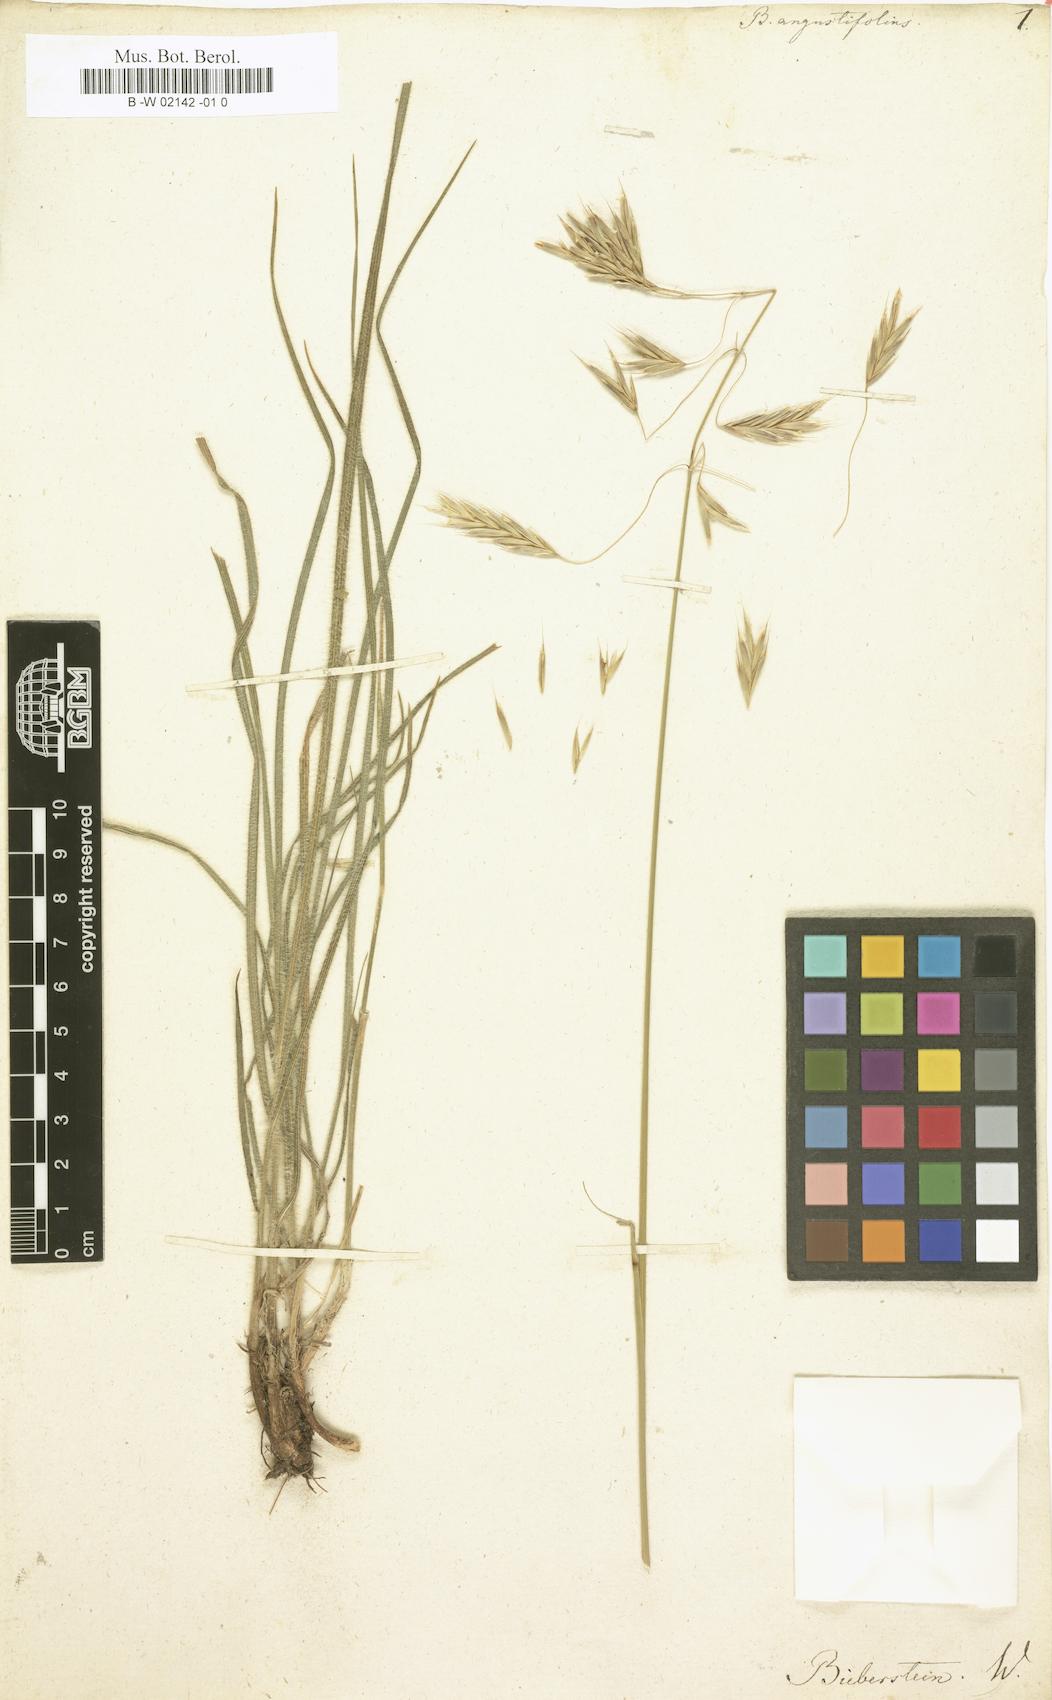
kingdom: Plantae
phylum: Tracheophyta
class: Liliopsida
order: Poales
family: Poaceae
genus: Bromus
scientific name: Bromus erectus
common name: Erect brome
